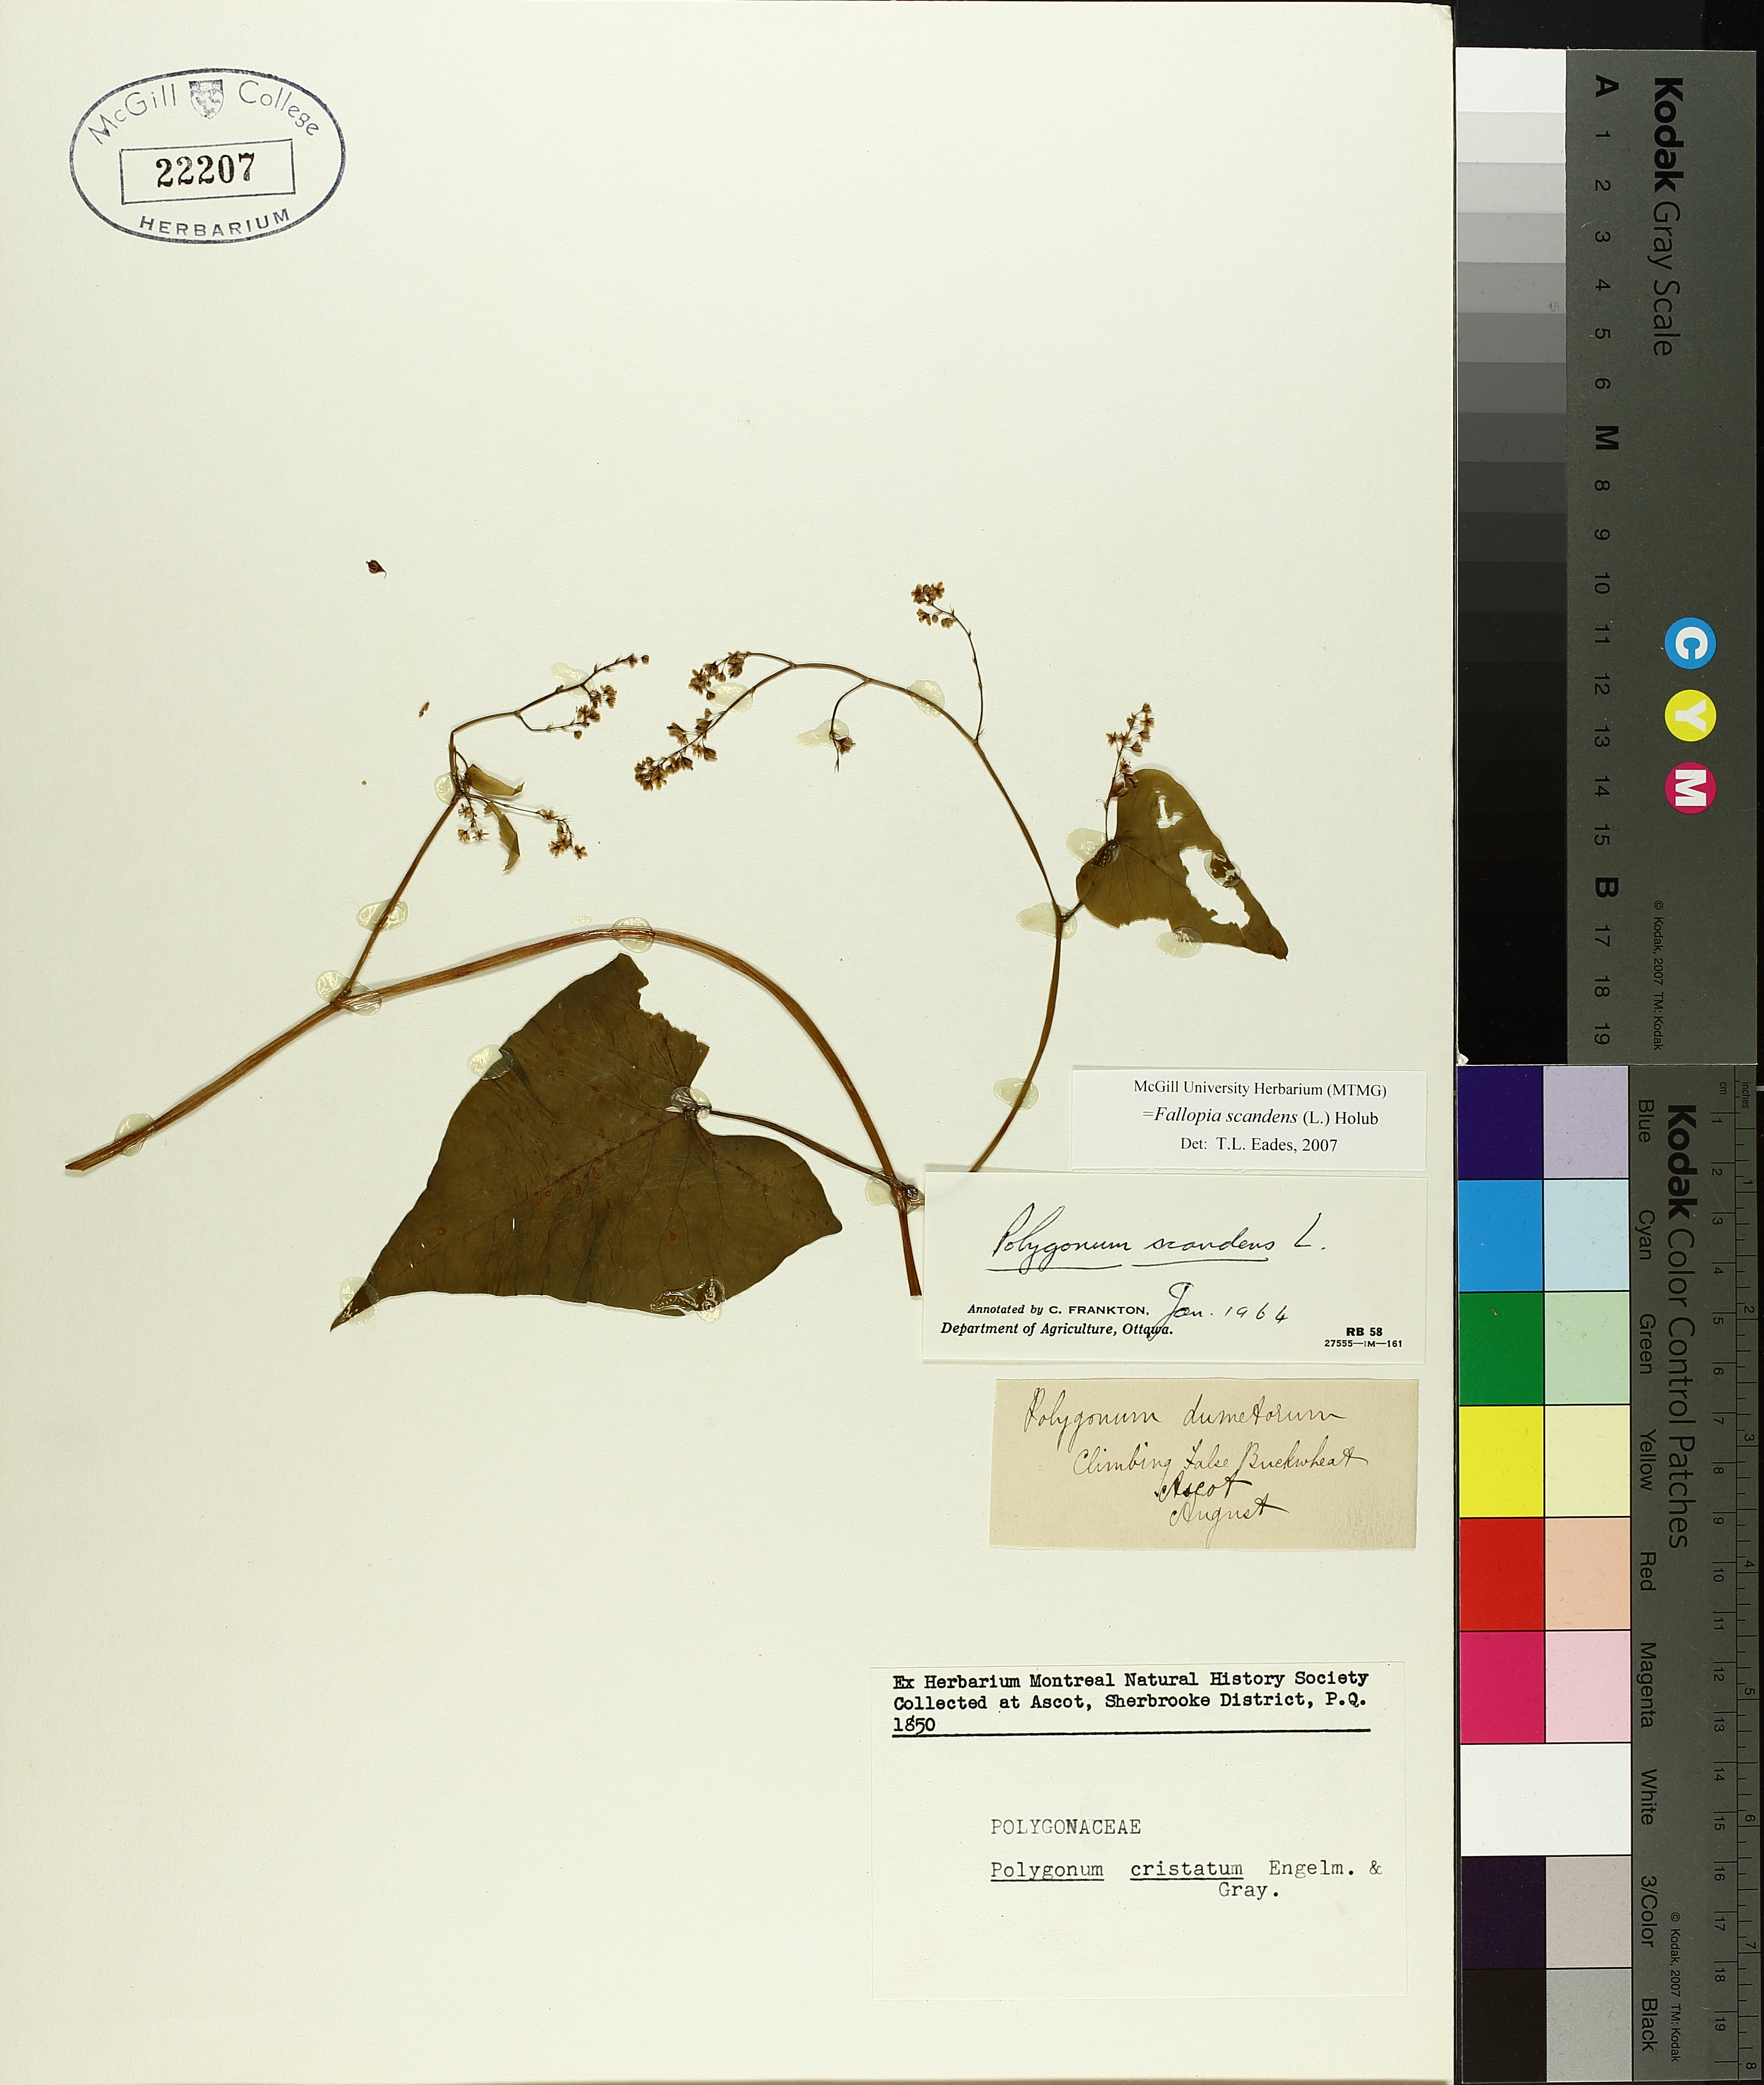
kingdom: Plantae
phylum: Tracheophyta
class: Magnoliopsida
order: Caryophyllales
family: Polygonaceae
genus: Fallopia
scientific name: Fallopia scandens
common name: Climbing false buckwheat
